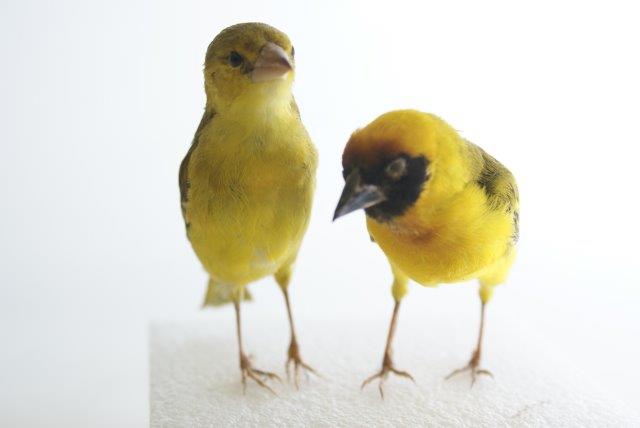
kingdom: Animalia
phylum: Chordata
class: Aves
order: Passeriformes
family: Ploceidae
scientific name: Ploceidae
